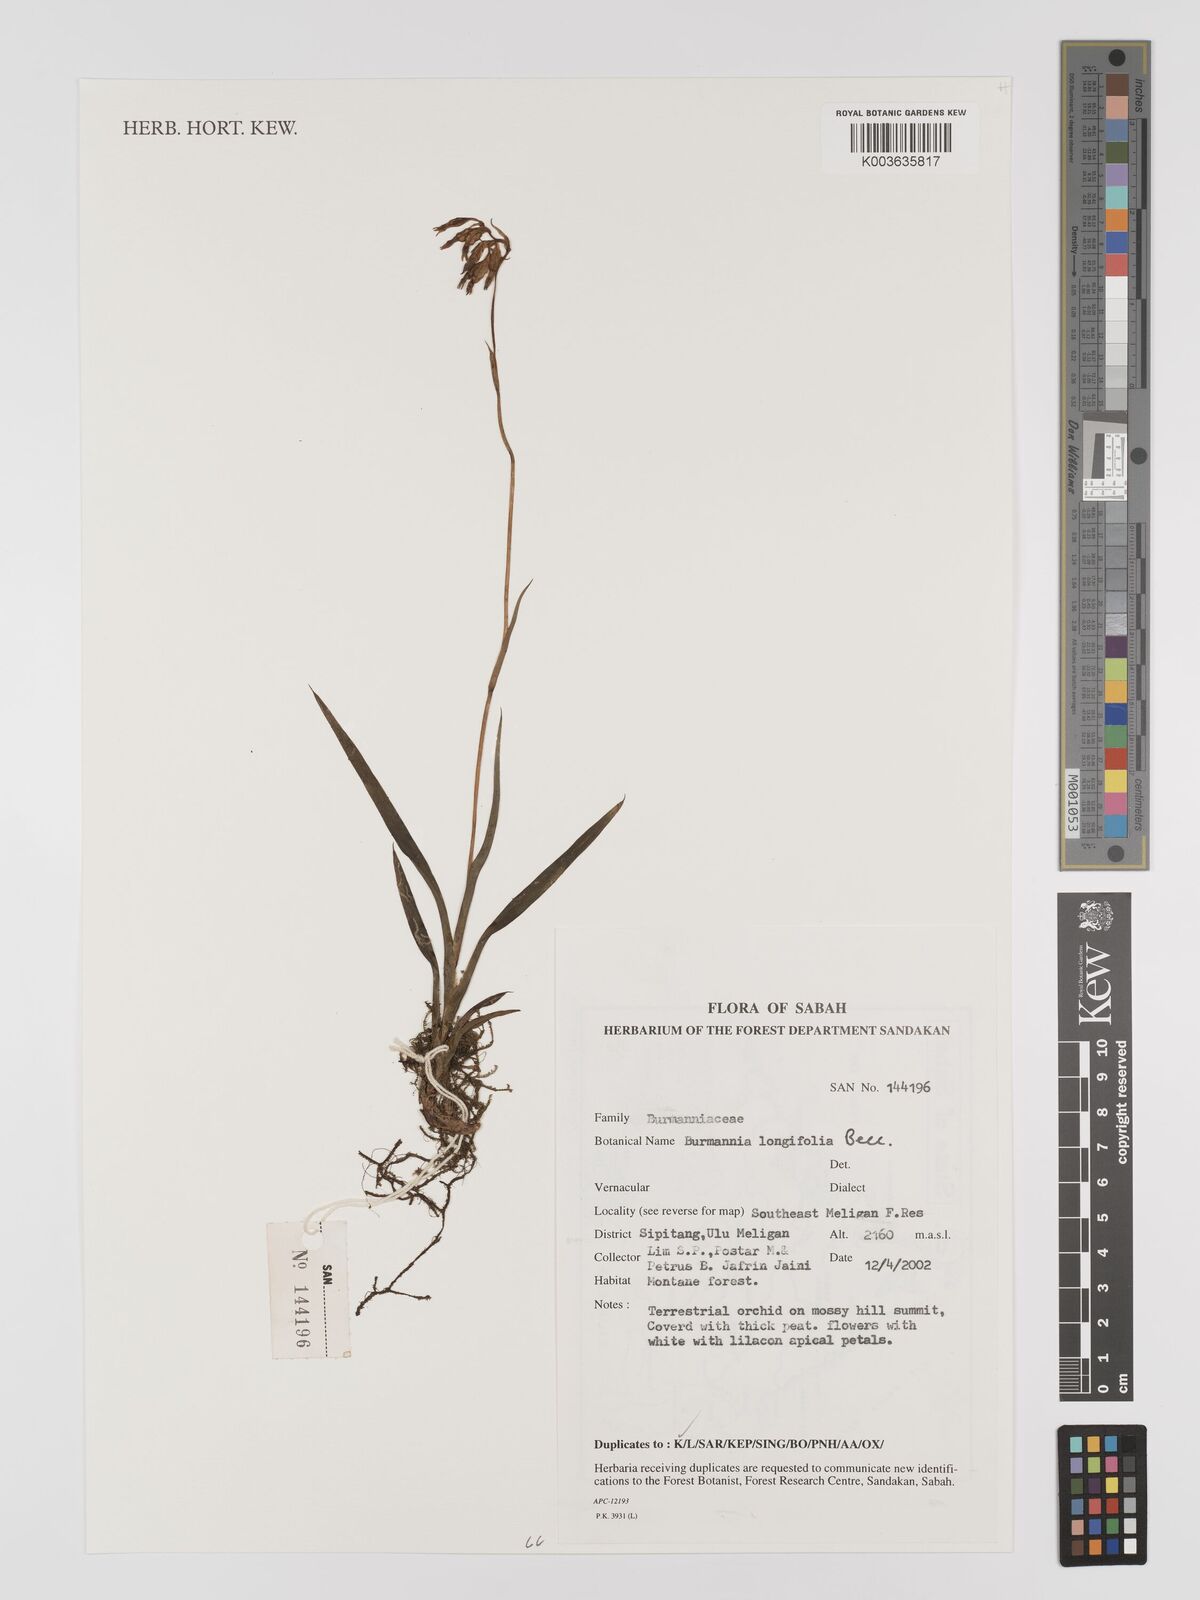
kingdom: Plantae
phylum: Tracheophyta
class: Liliopsida
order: Dioscoreales
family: Burmanniaceae
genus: Burmannia
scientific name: Burmannia longifolia
